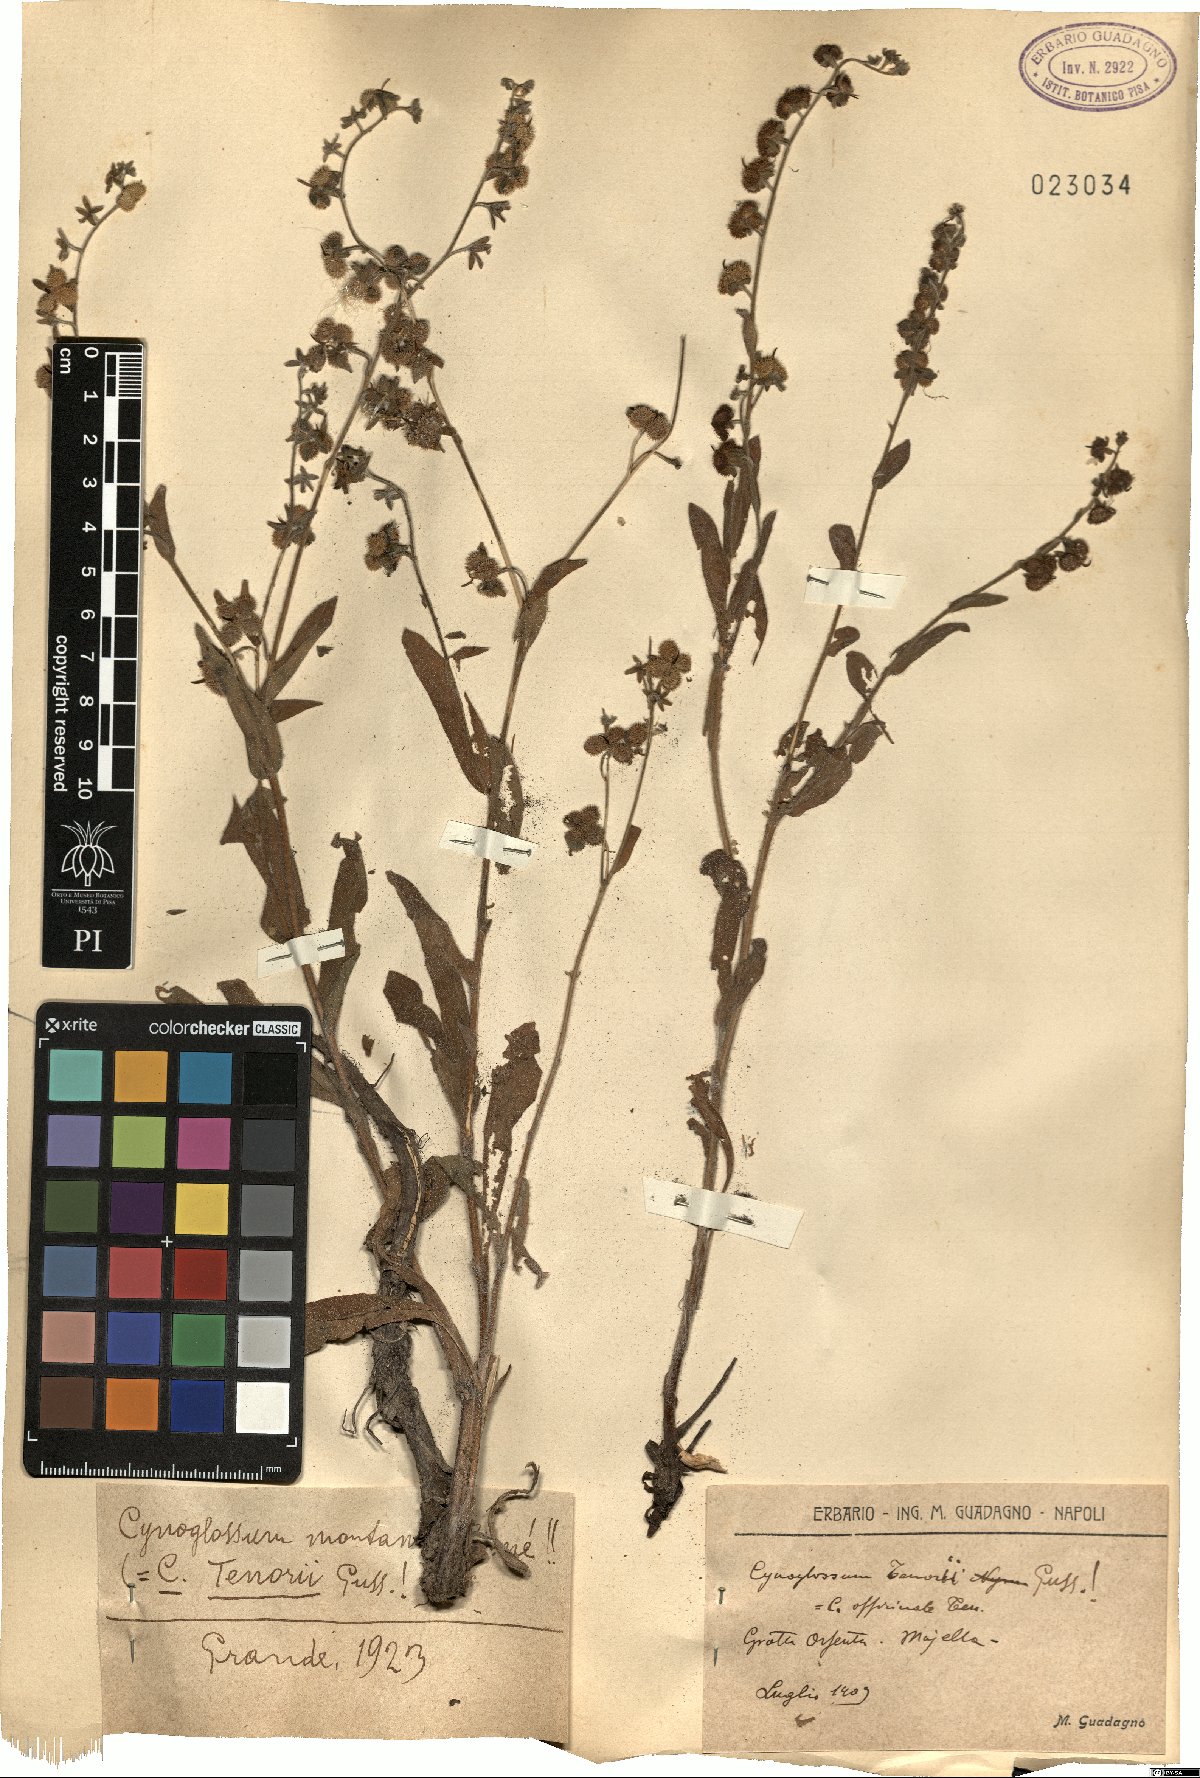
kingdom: Plantae
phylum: Tracheophyta
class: Magnoliopsida
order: Boraginales
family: Boraginaceae
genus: Cynoglossum
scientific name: Cynoglossum montanum
